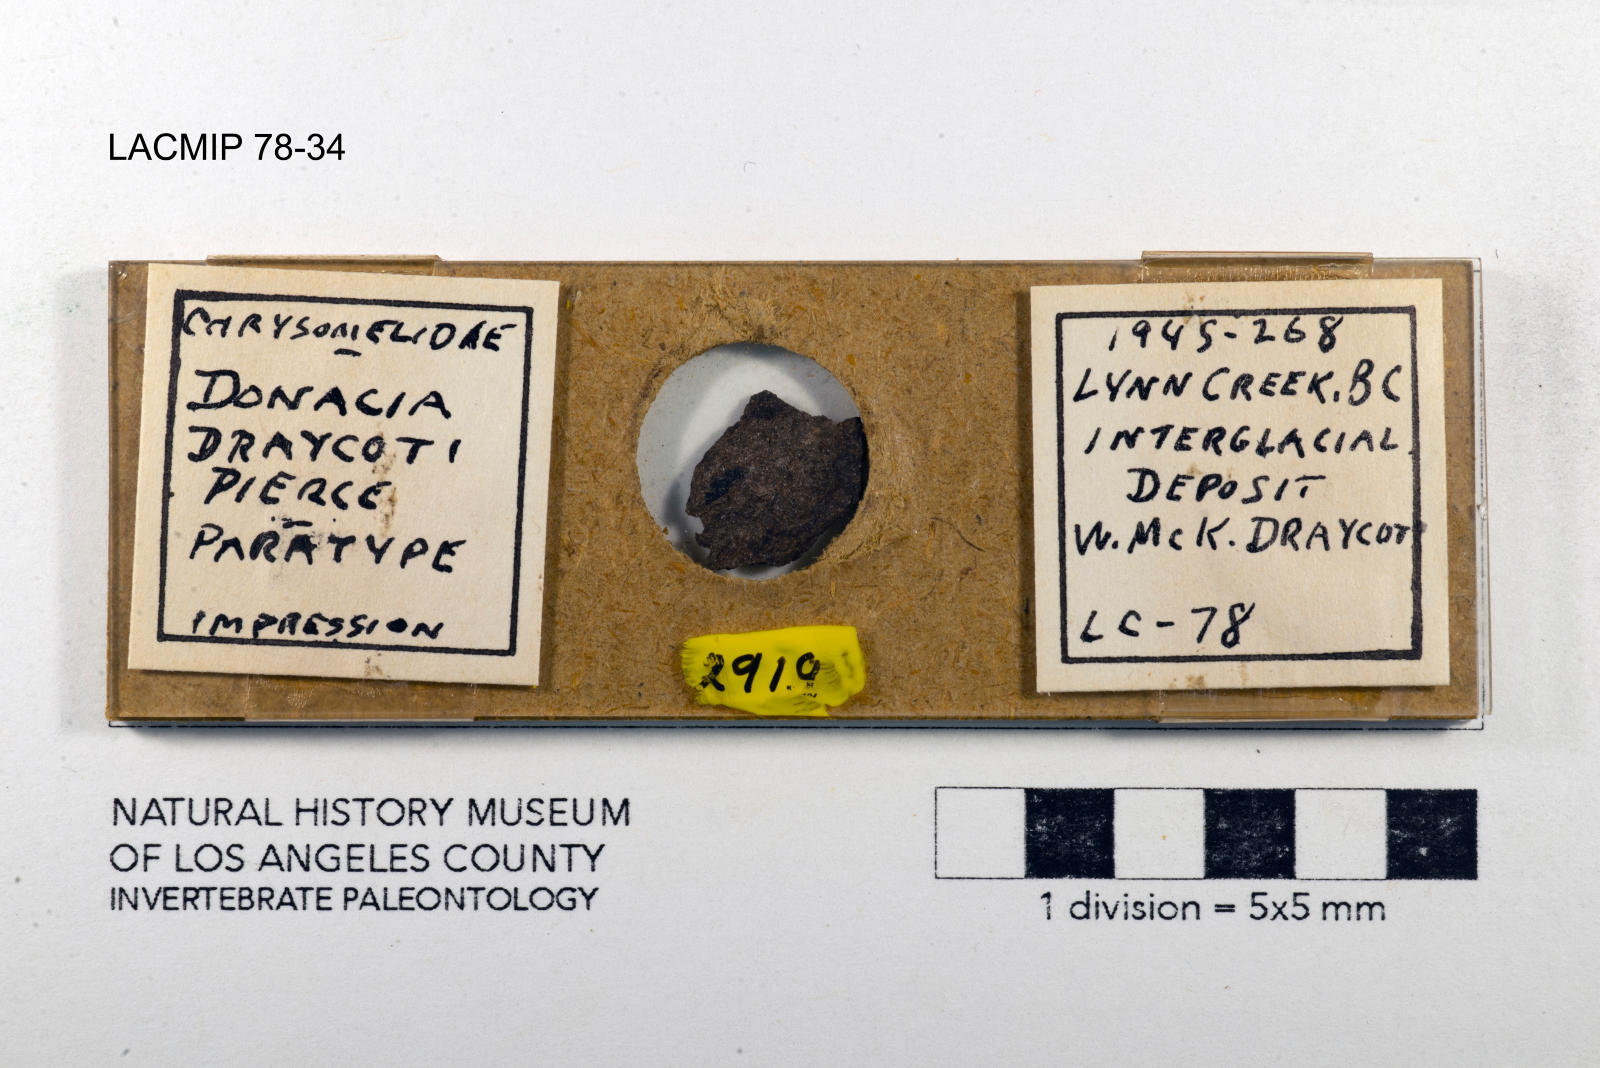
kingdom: Animalia
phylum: Arthropoda
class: Insecta
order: Coleoptera
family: Chrysomelidae
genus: Donacia
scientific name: Donacia draycoti
